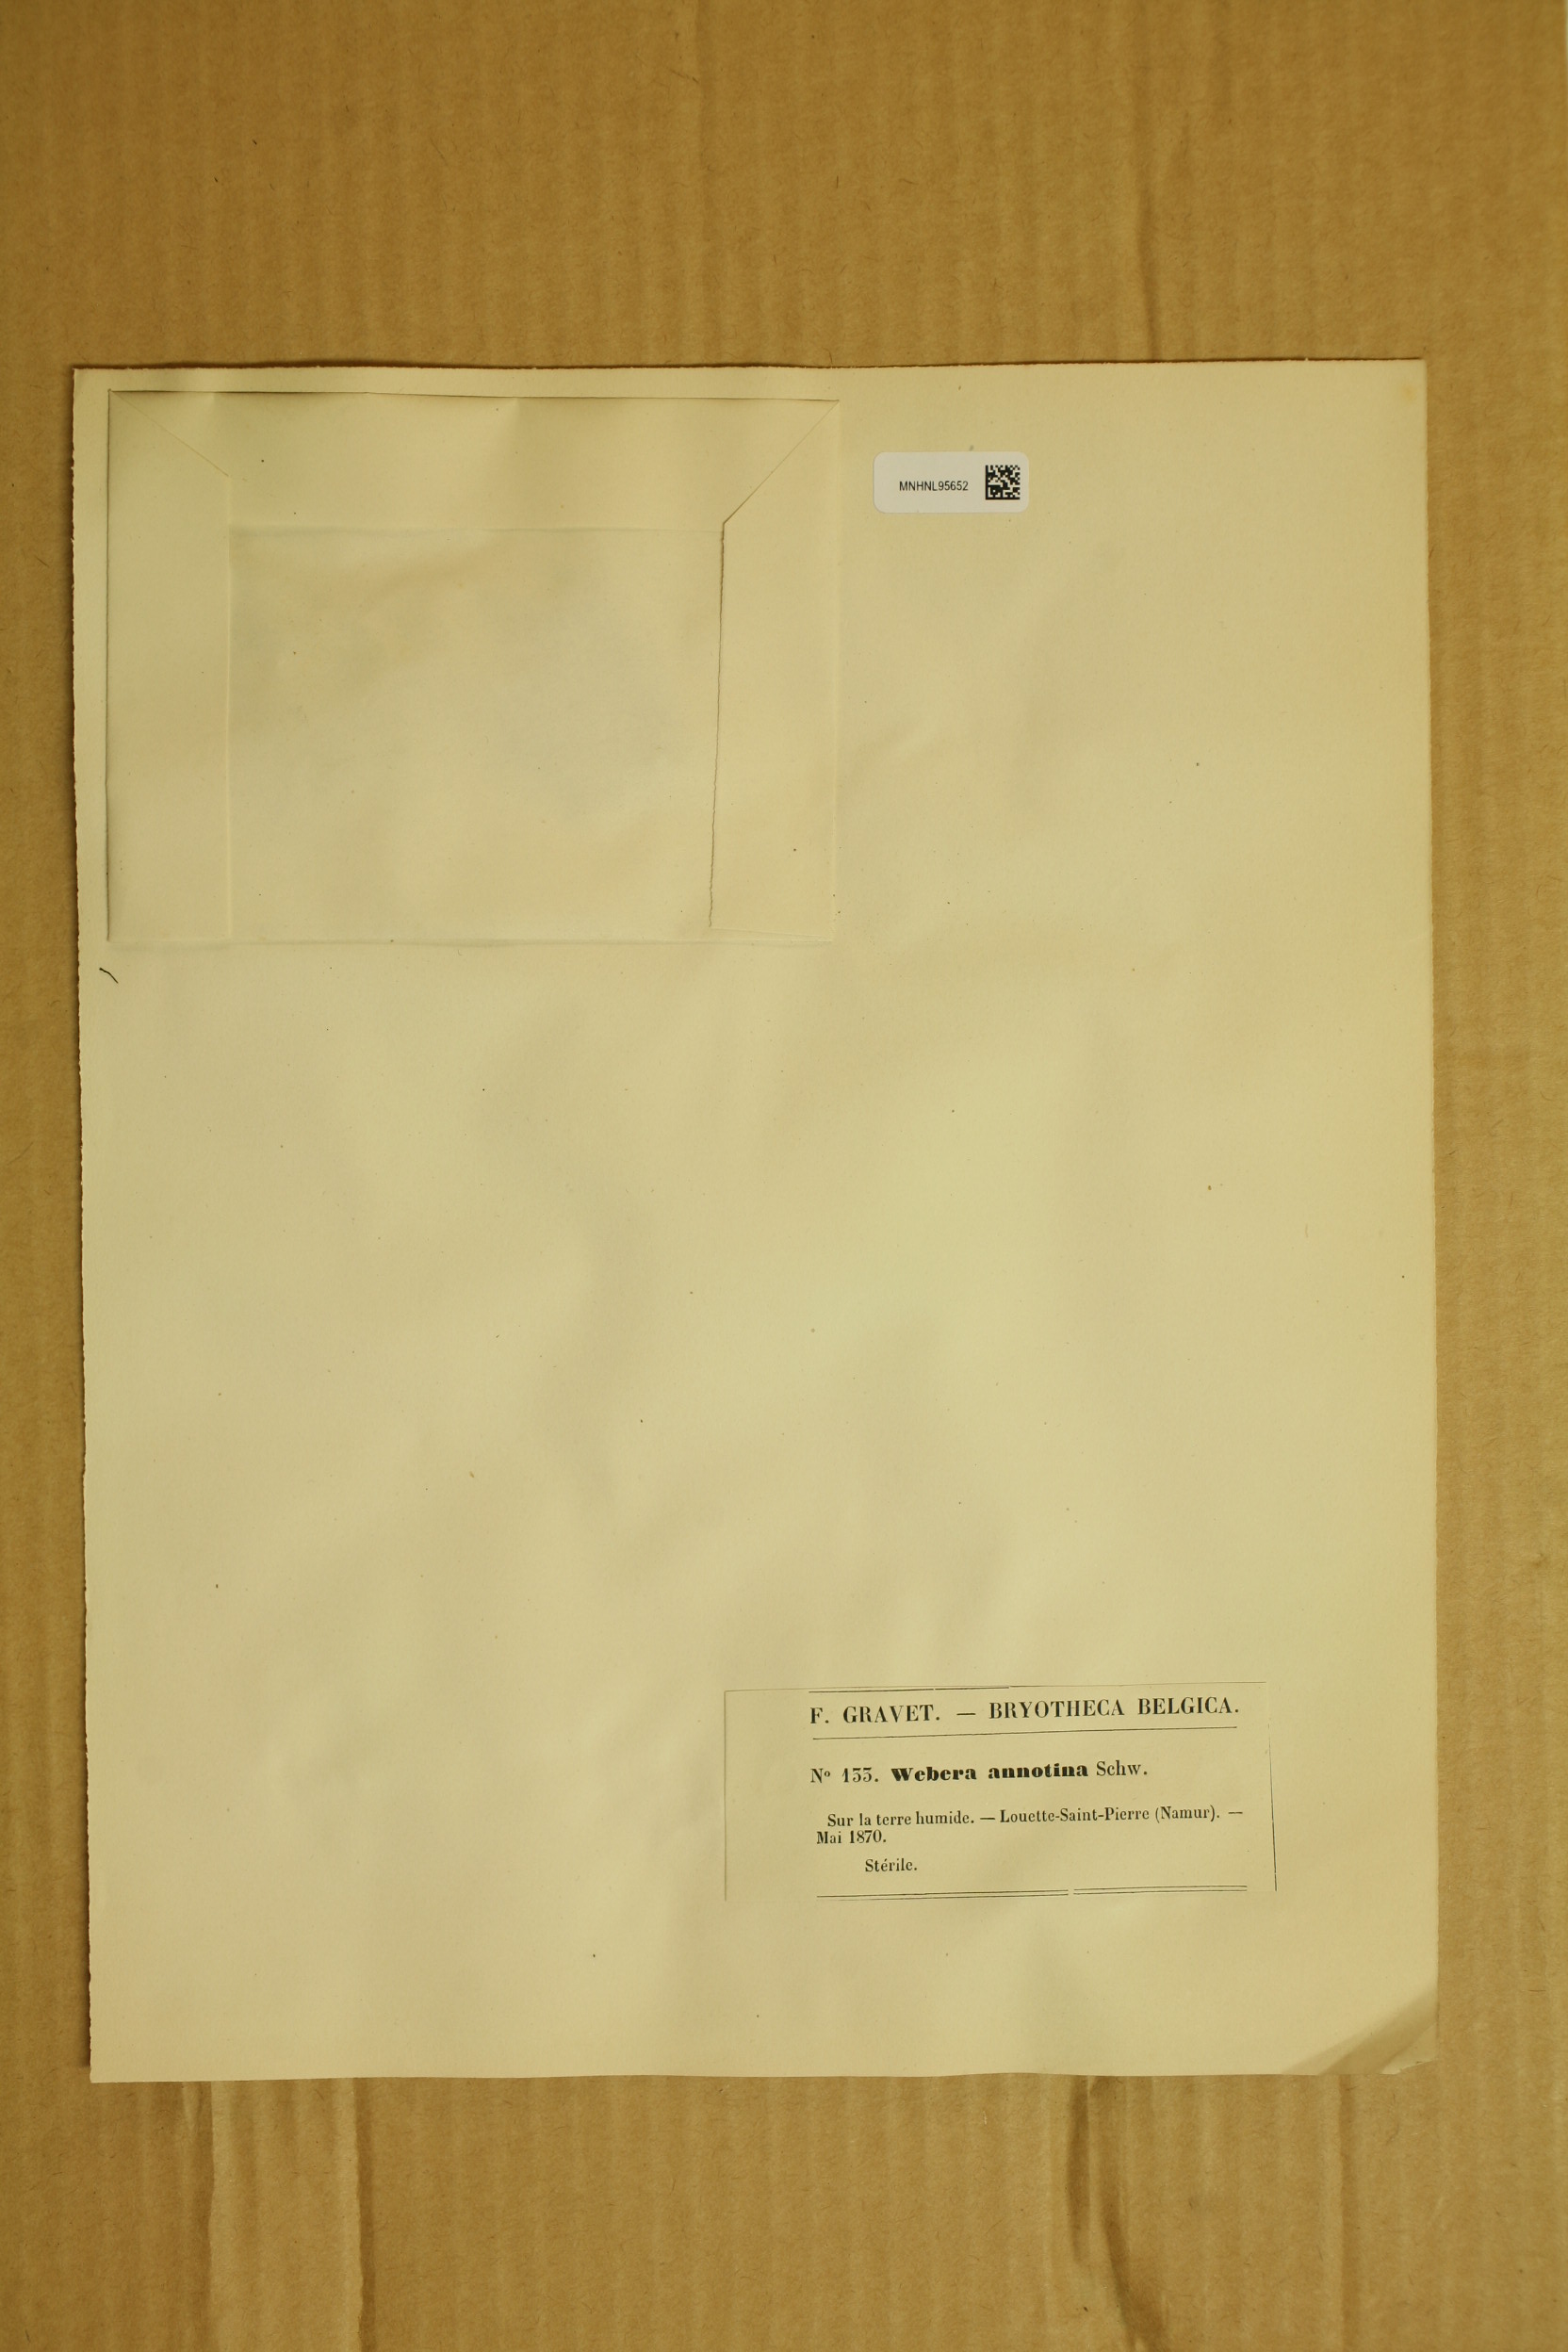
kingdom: Plantae
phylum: Bryophyta
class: Bryopsida
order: Bryales
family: Mniaceae
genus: Pohlia
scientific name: Pohlia
